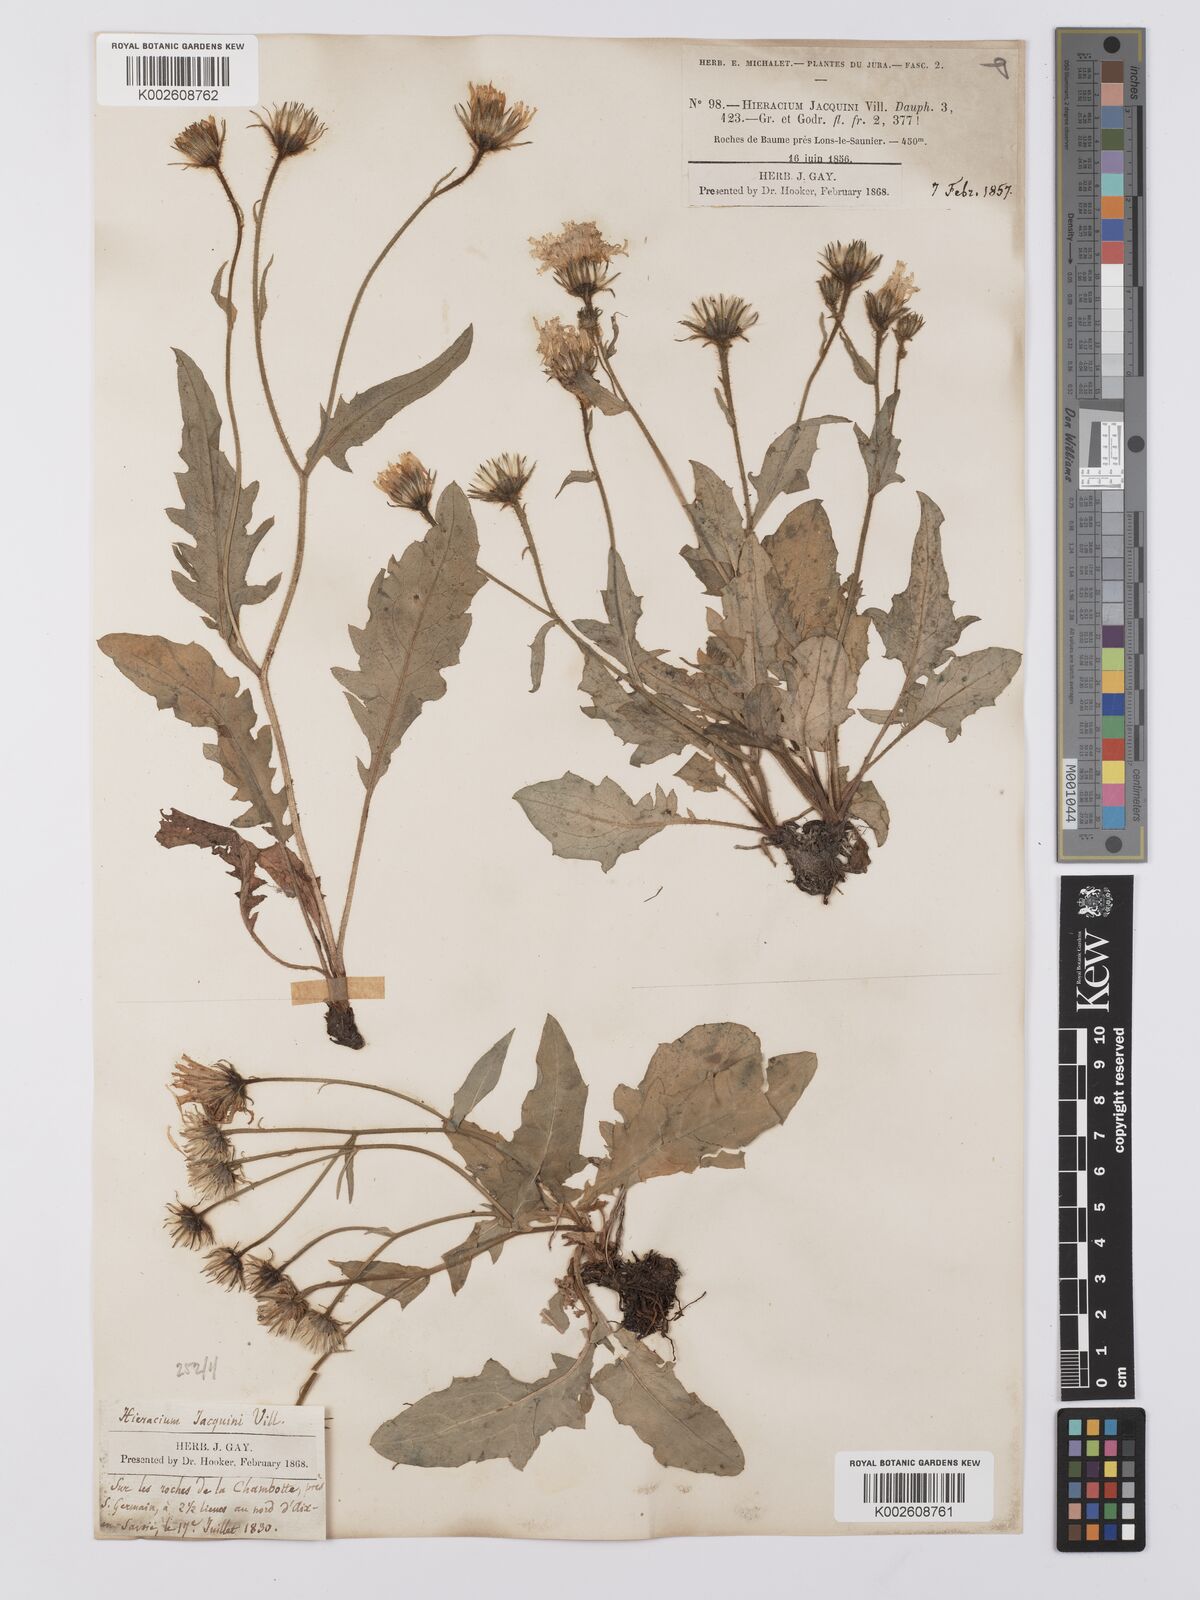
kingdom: Plantae
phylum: Tracheophyta
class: Magnoliopsida
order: Asterales
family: Asteraceae
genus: Hieracium
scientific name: Hieracium humile
